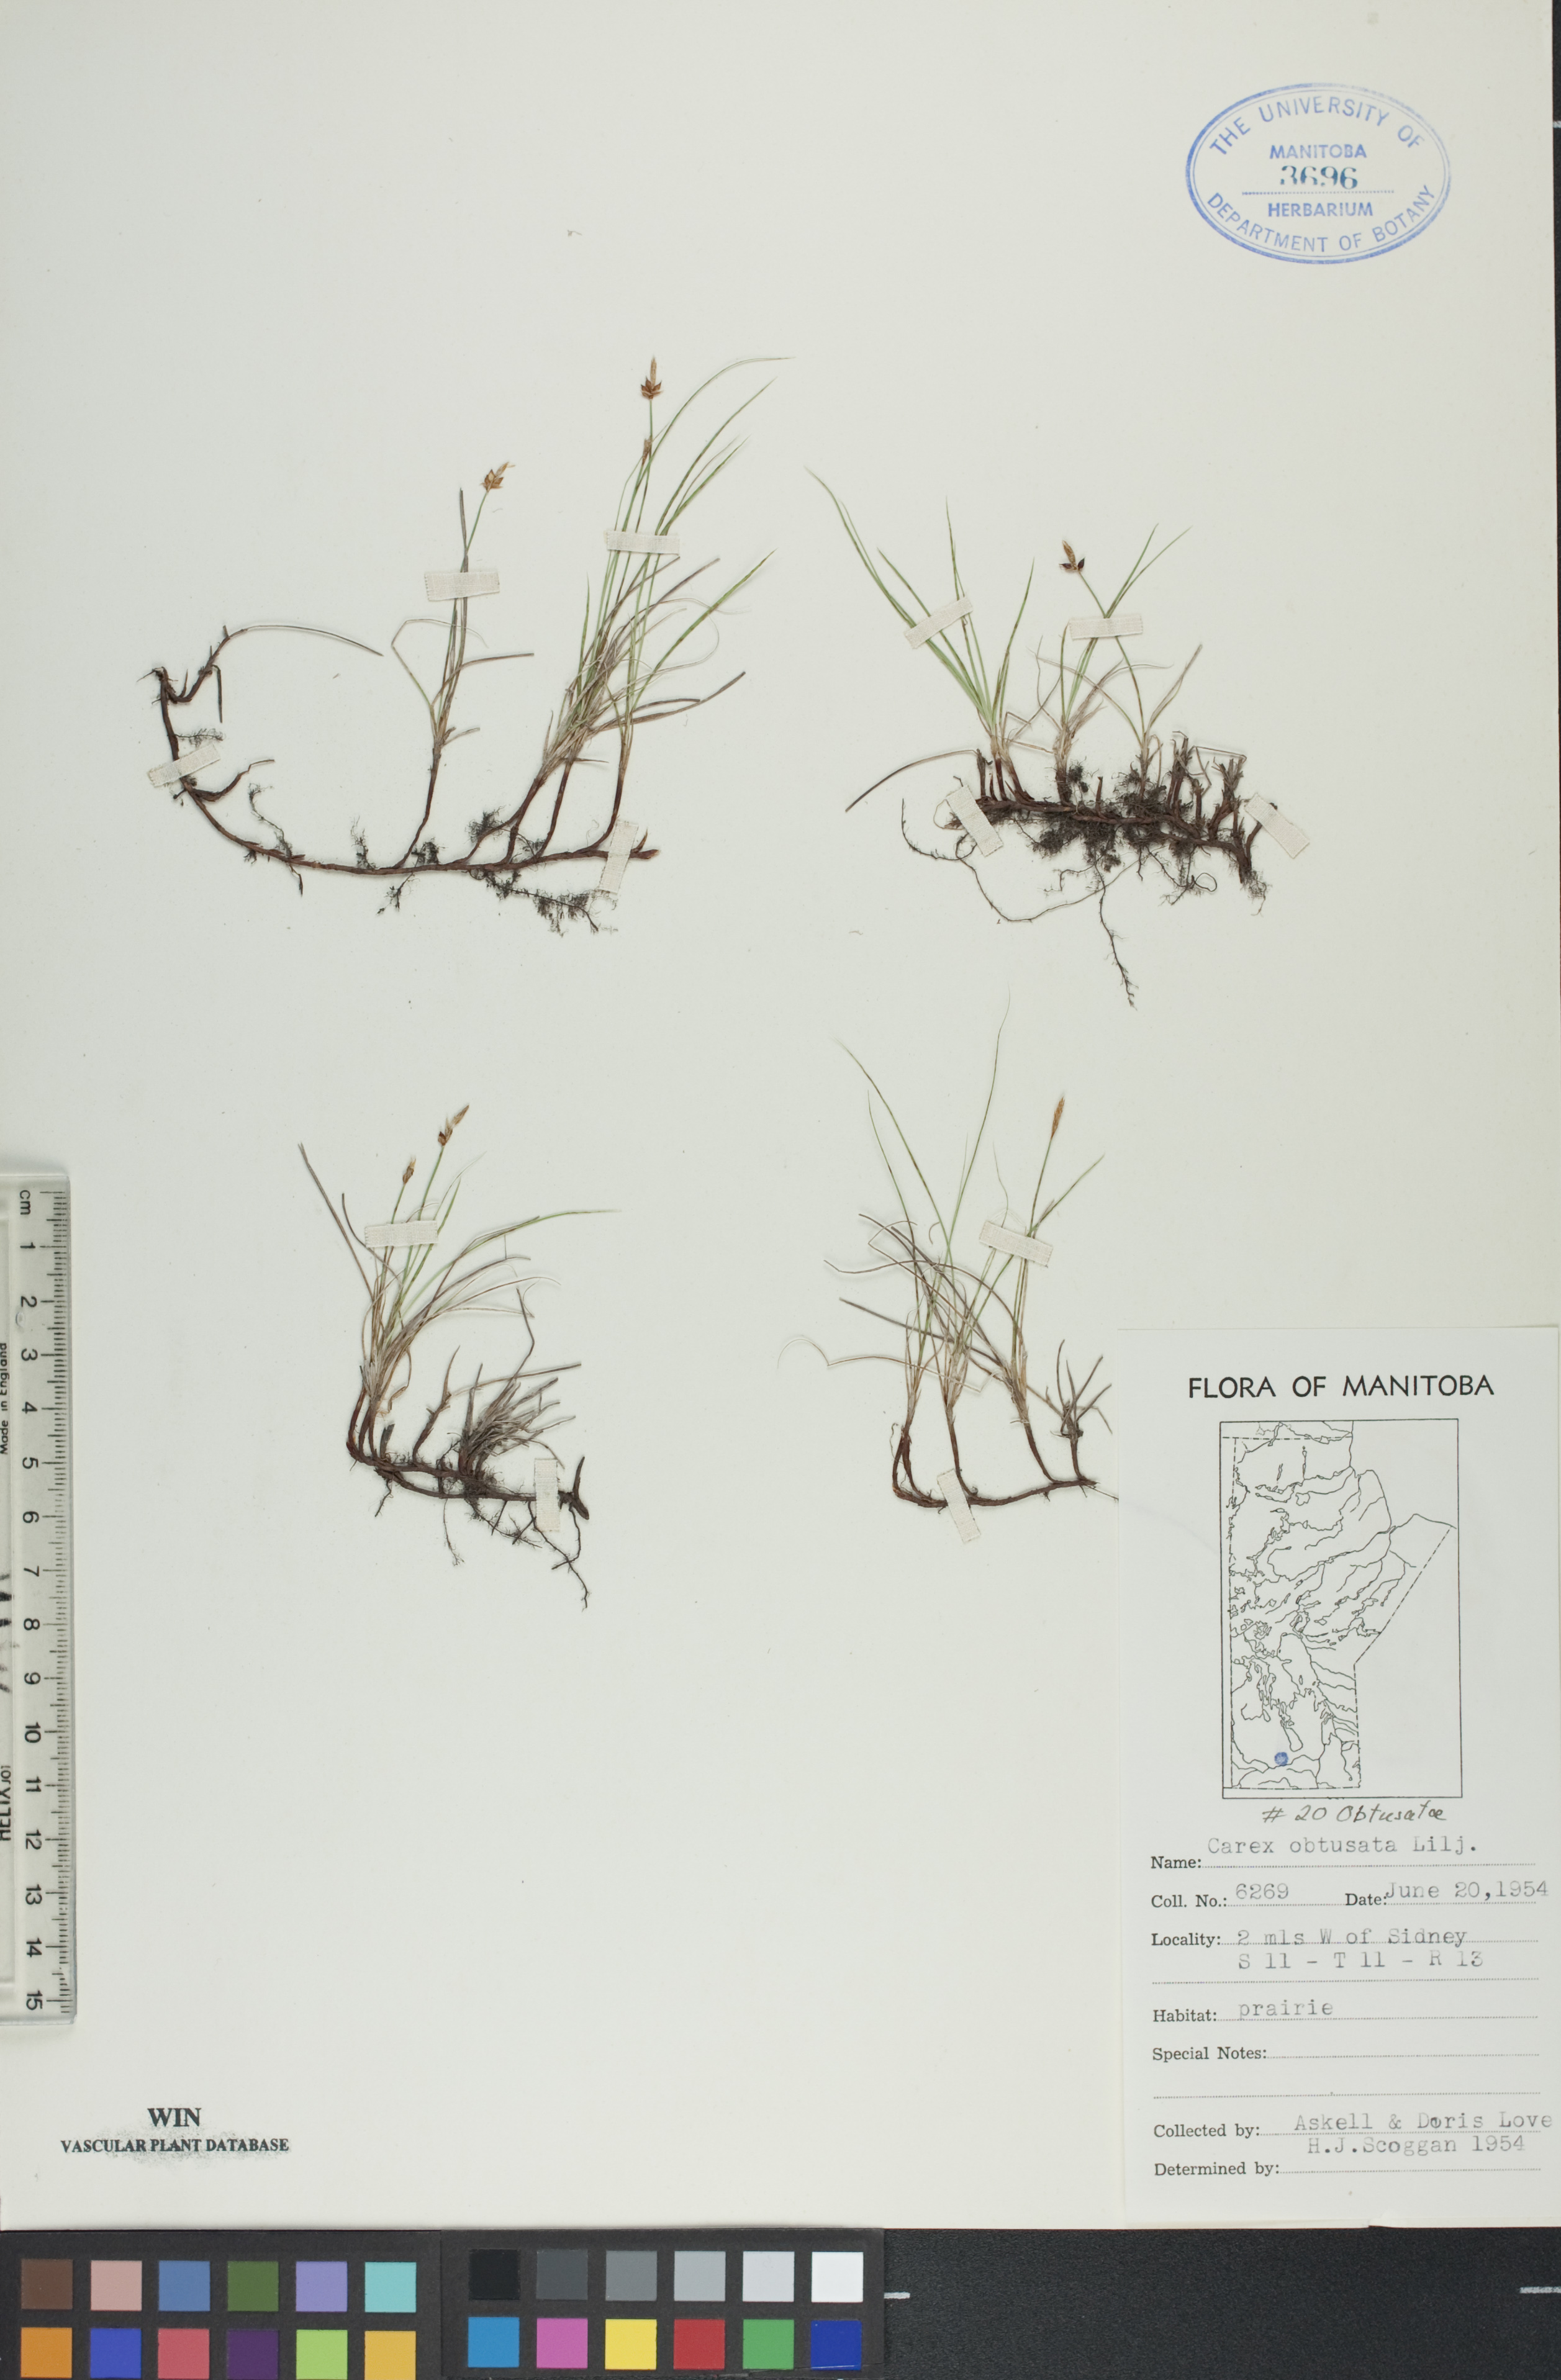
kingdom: Plantae
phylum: Tracheophyta
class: Liliopsida
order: Poales
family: Cyperaceae
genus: Carex
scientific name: Carex obtusata
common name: Blunt sedge
